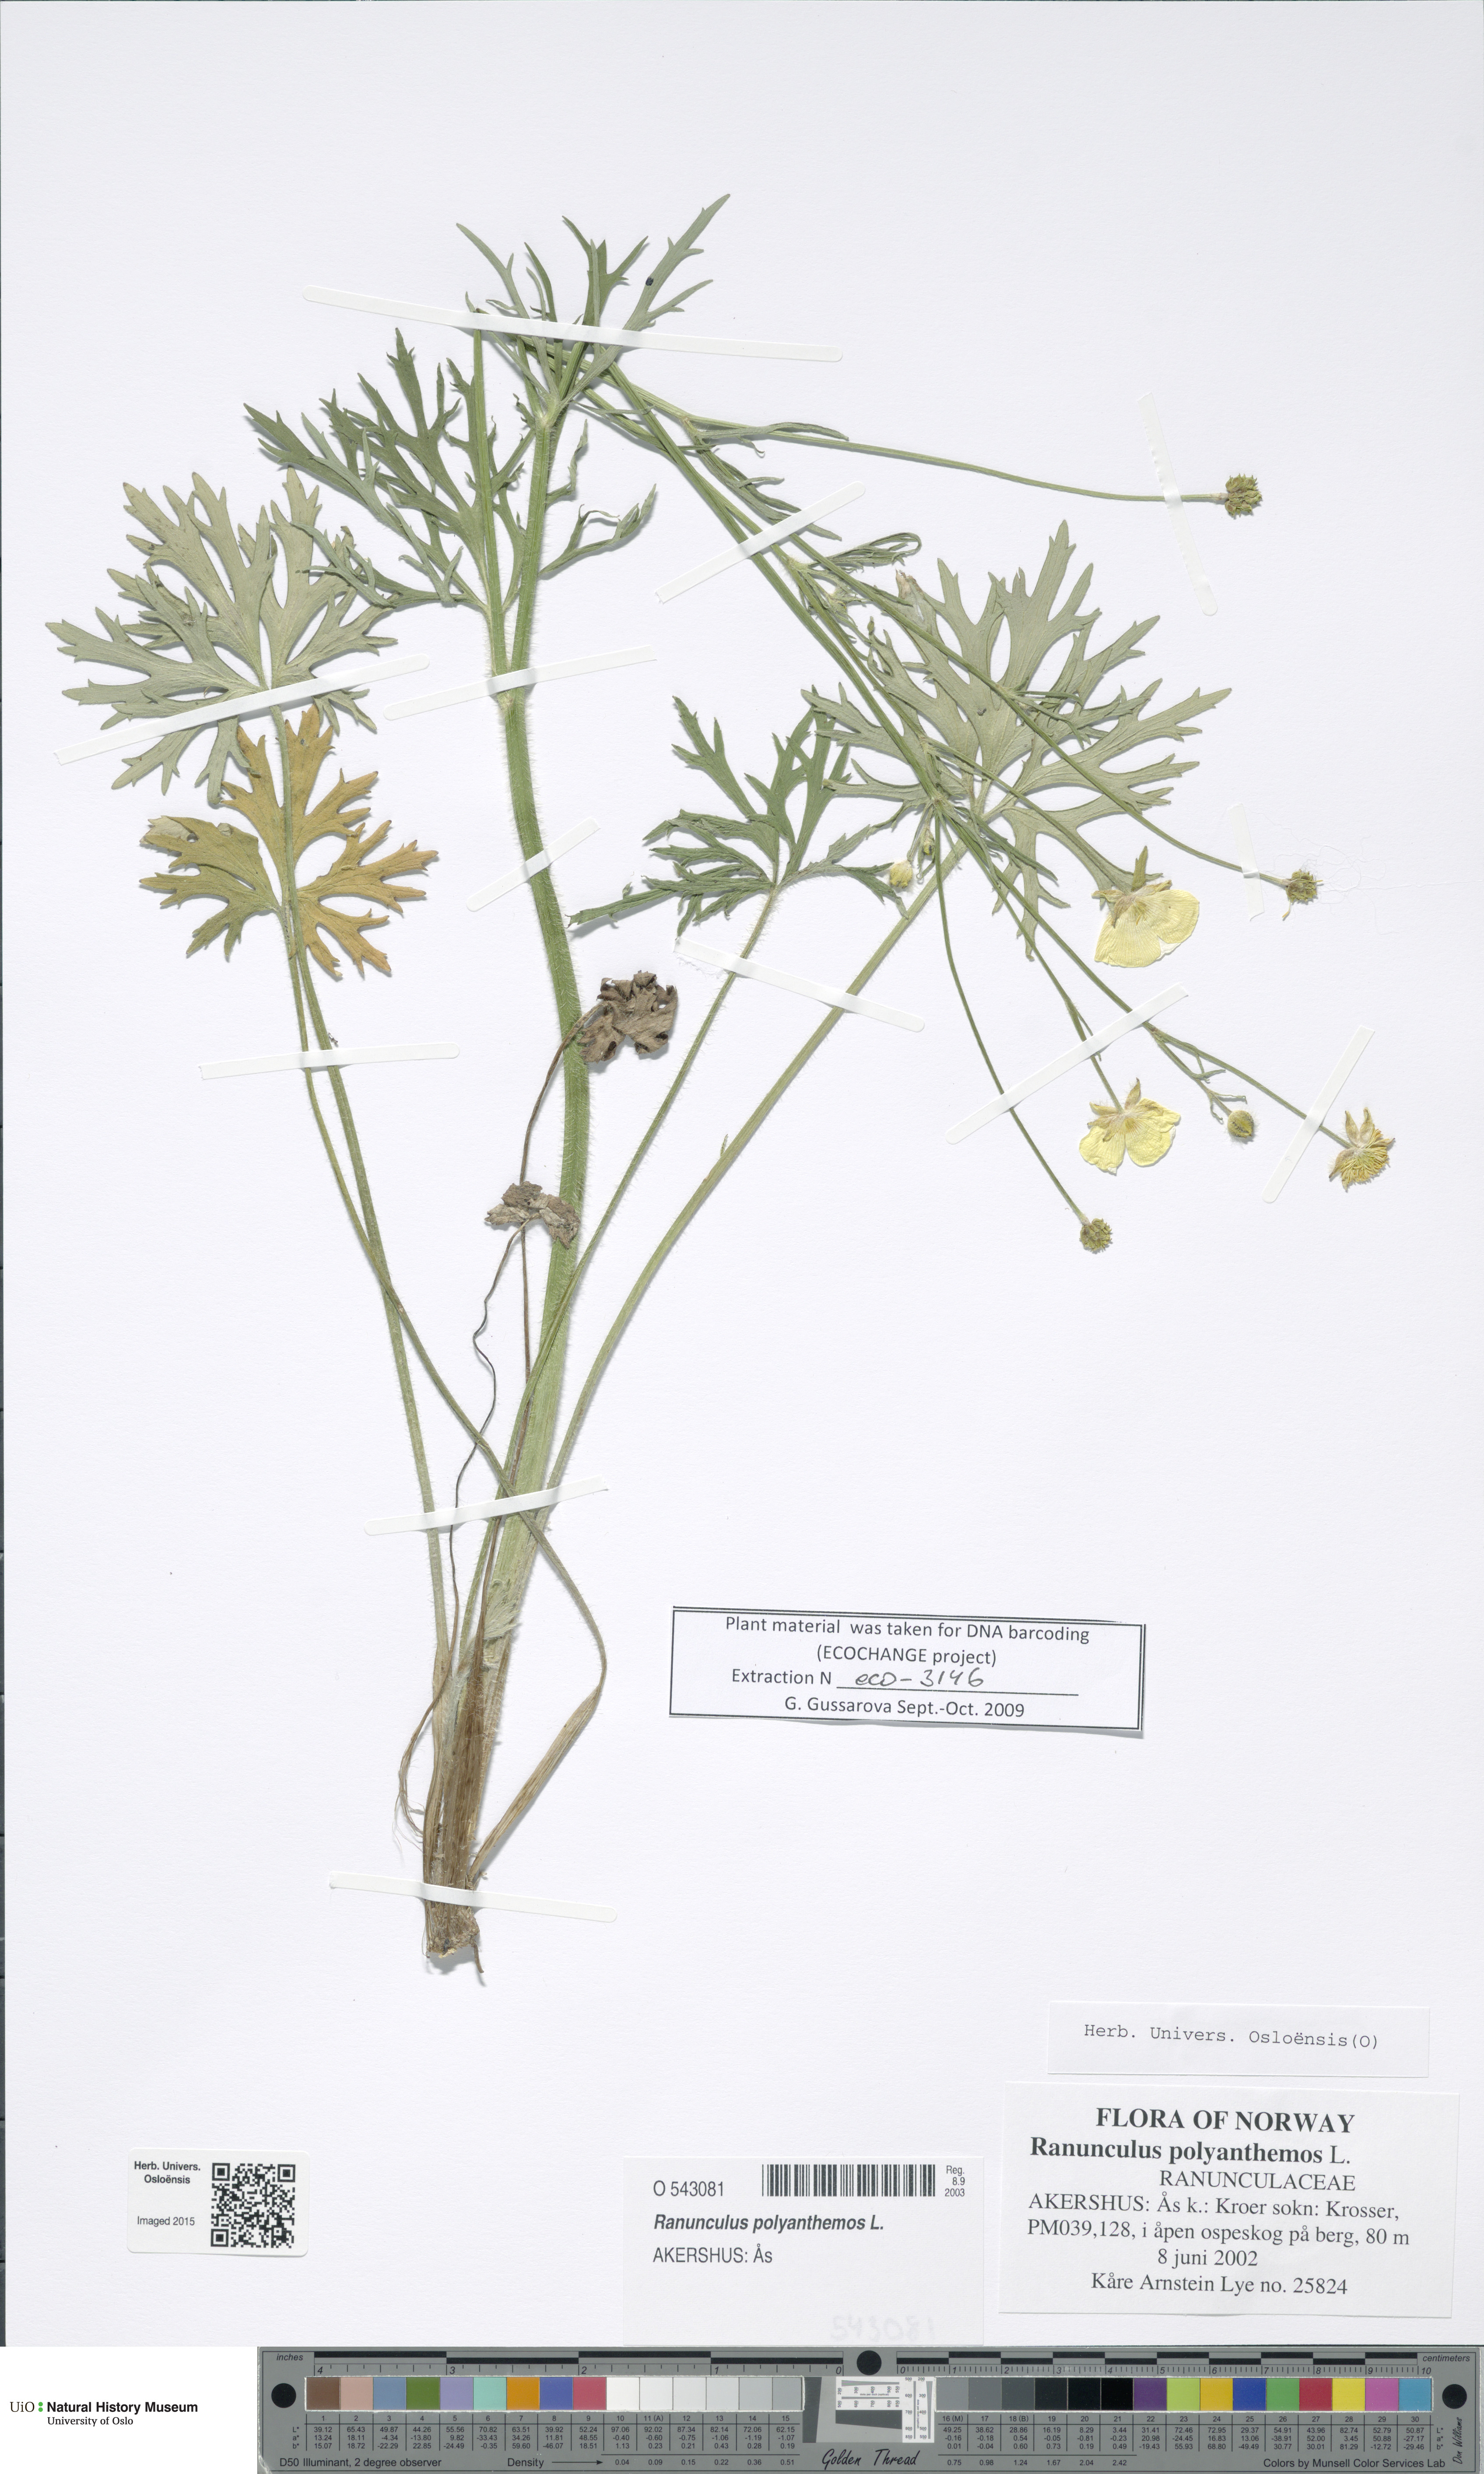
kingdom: Plantae
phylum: Tracheophyta
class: Magnoliopsida
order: Ranunculales
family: Ranunculaceae
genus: Ranunculus
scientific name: Ranunculus polyanthemos
